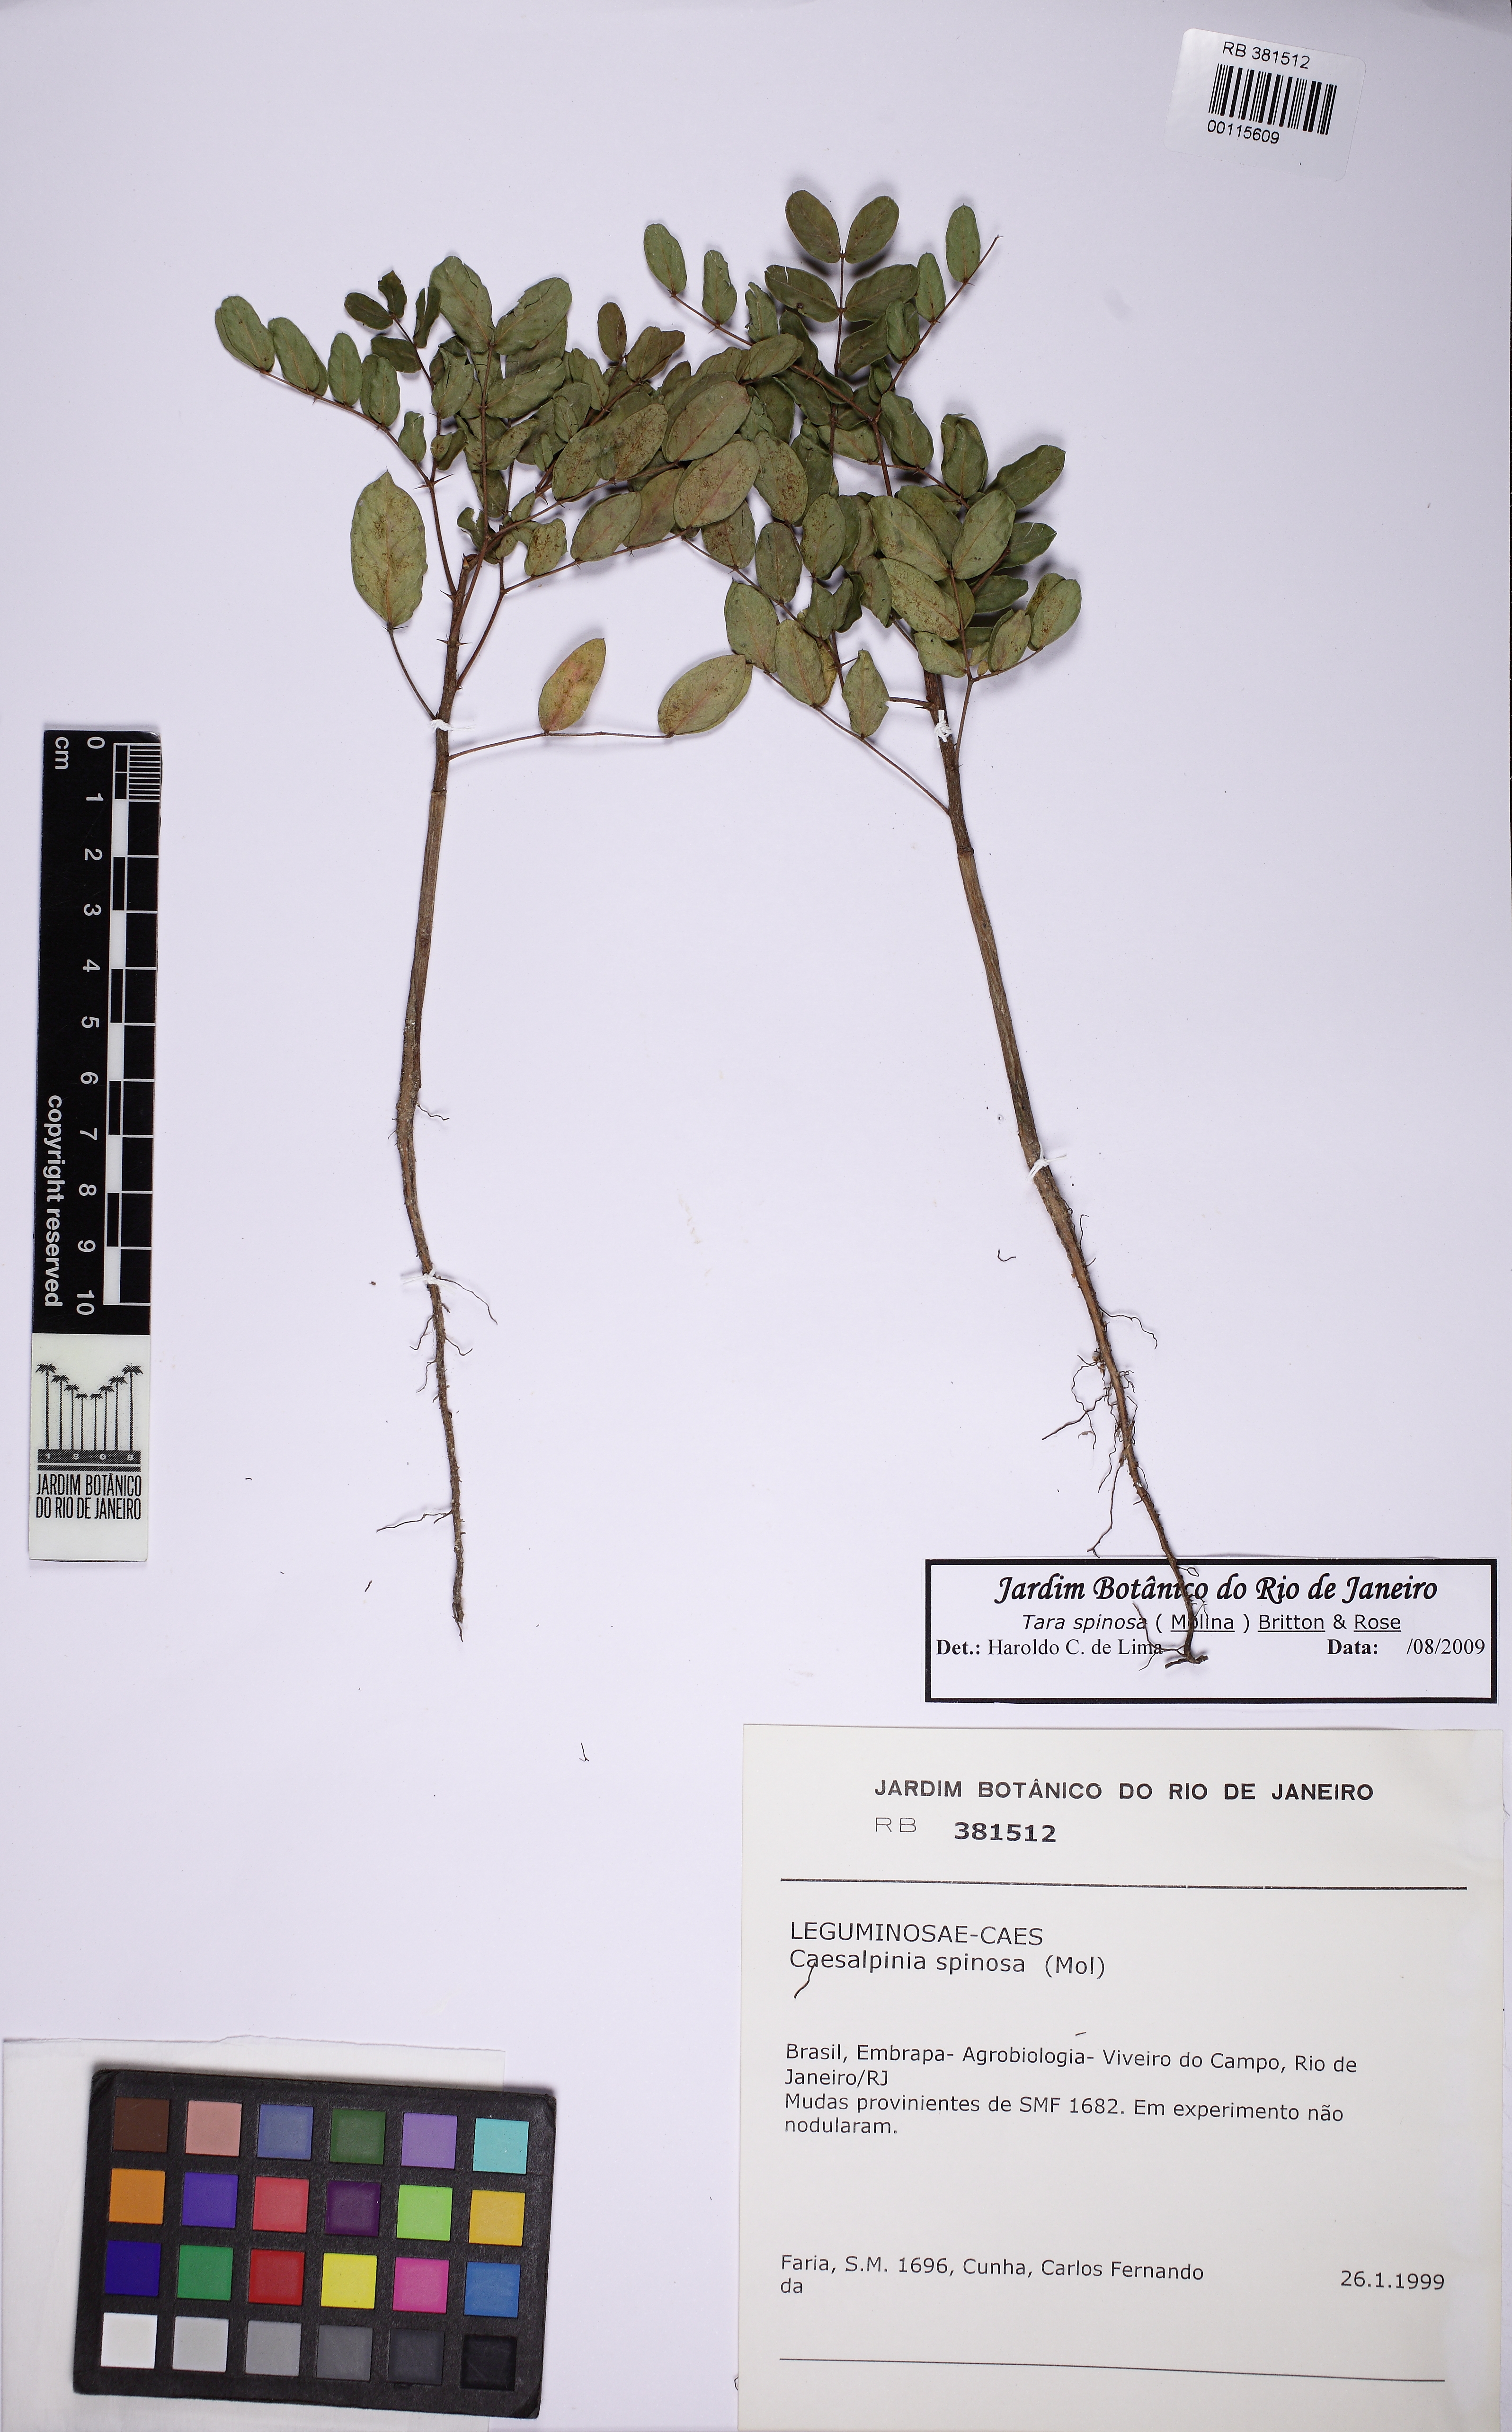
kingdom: Plantae
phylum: Tracheophyta
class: Magnoliopsida
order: Fabales
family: Fabaceae
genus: Tara
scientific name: Tara spinosa
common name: Spiny holdback
